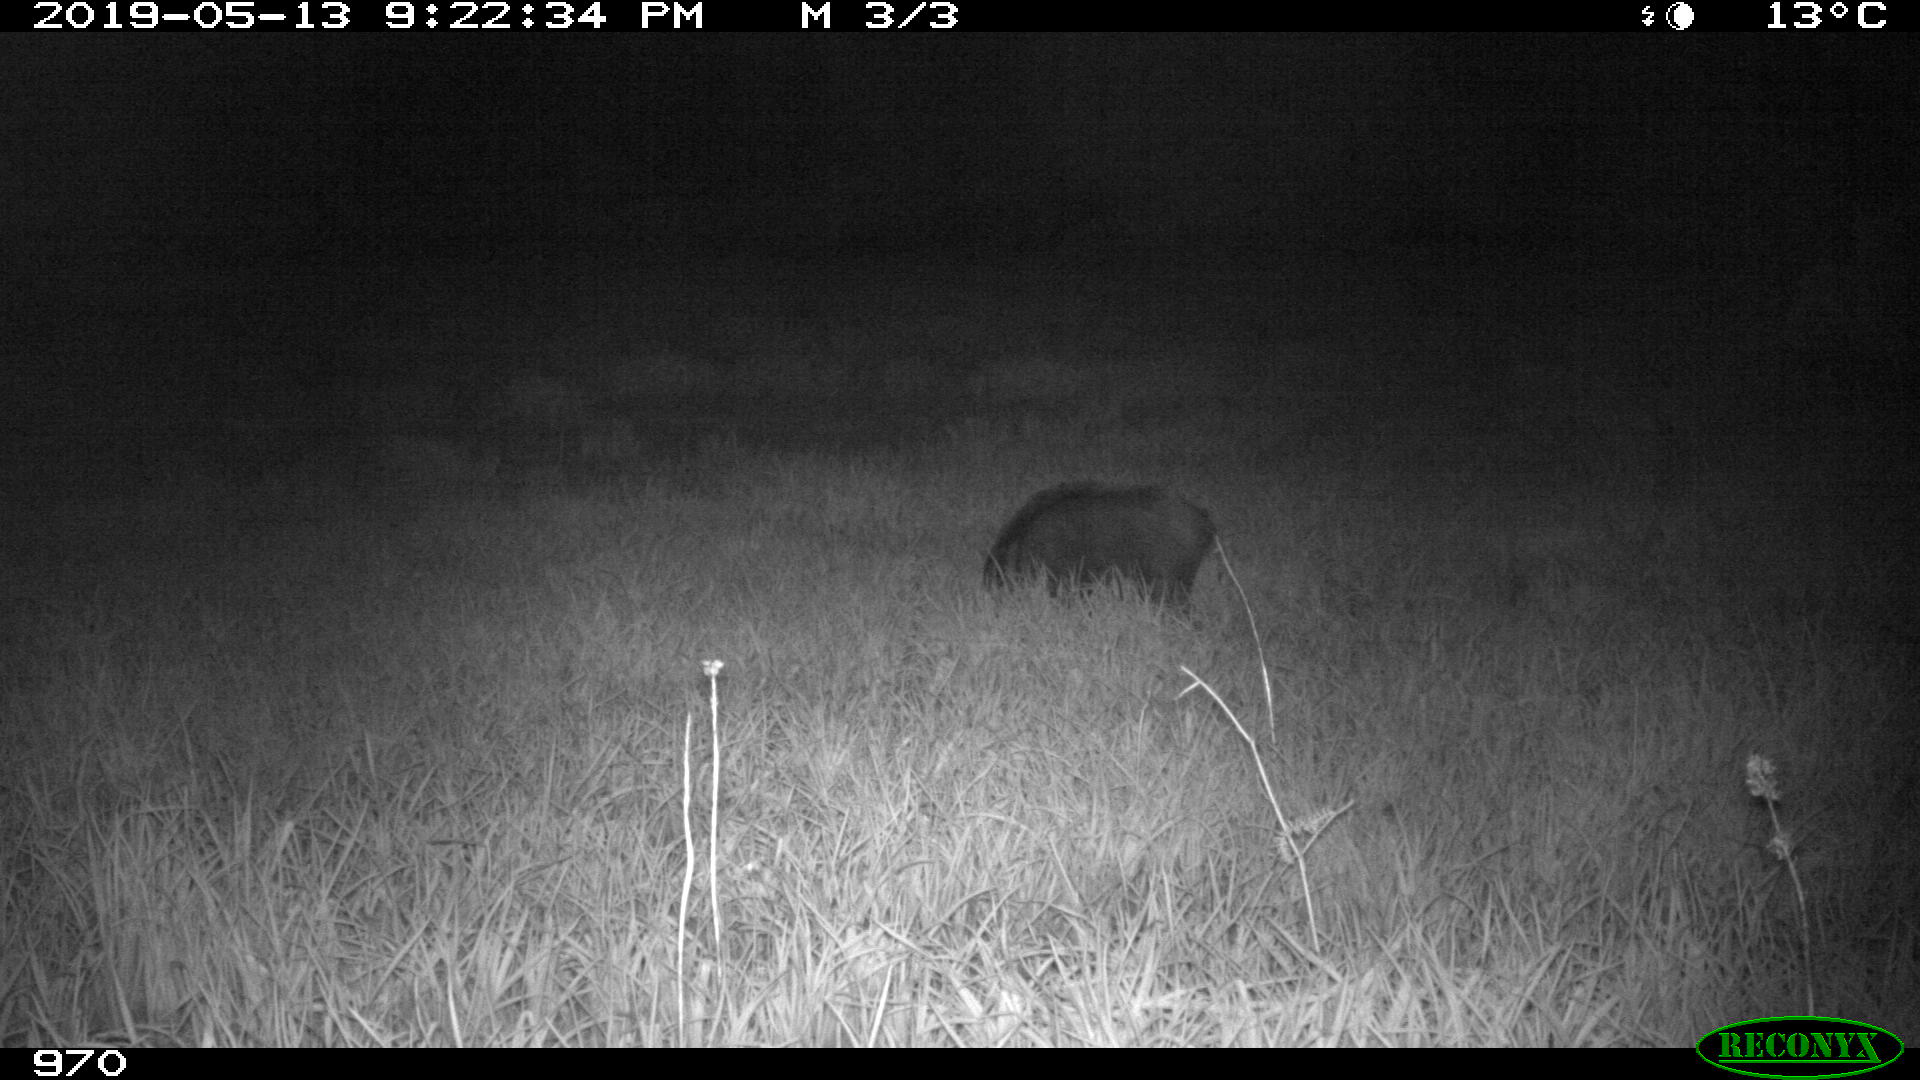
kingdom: Animalia
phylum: Chordata
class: Mammalia
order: Artiodactyla
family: Suidae
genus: Sus
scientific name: Sus scrofa
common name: Wild boar
